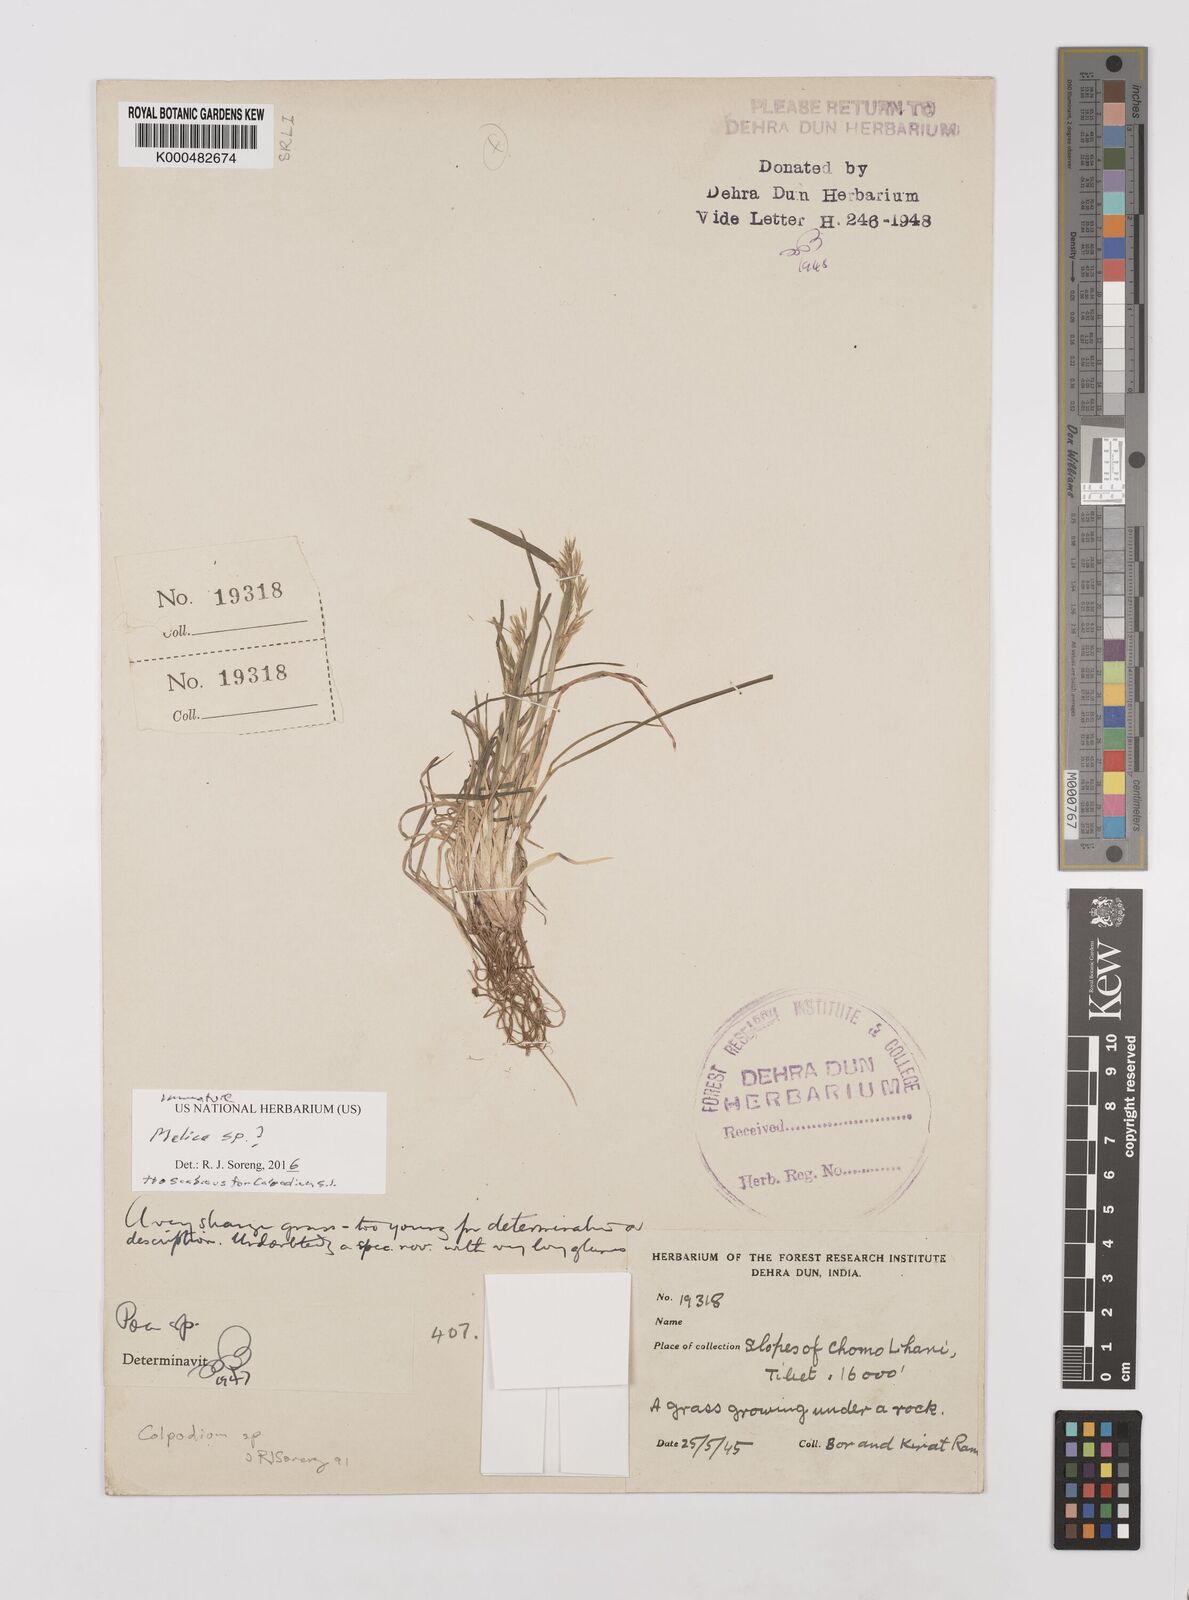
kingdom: Plantae
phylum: Tracheophyta
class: Liliopsida
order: Poales
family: Poaceae
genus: Paracolpodium
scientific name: Paracolpodium tibeticum
